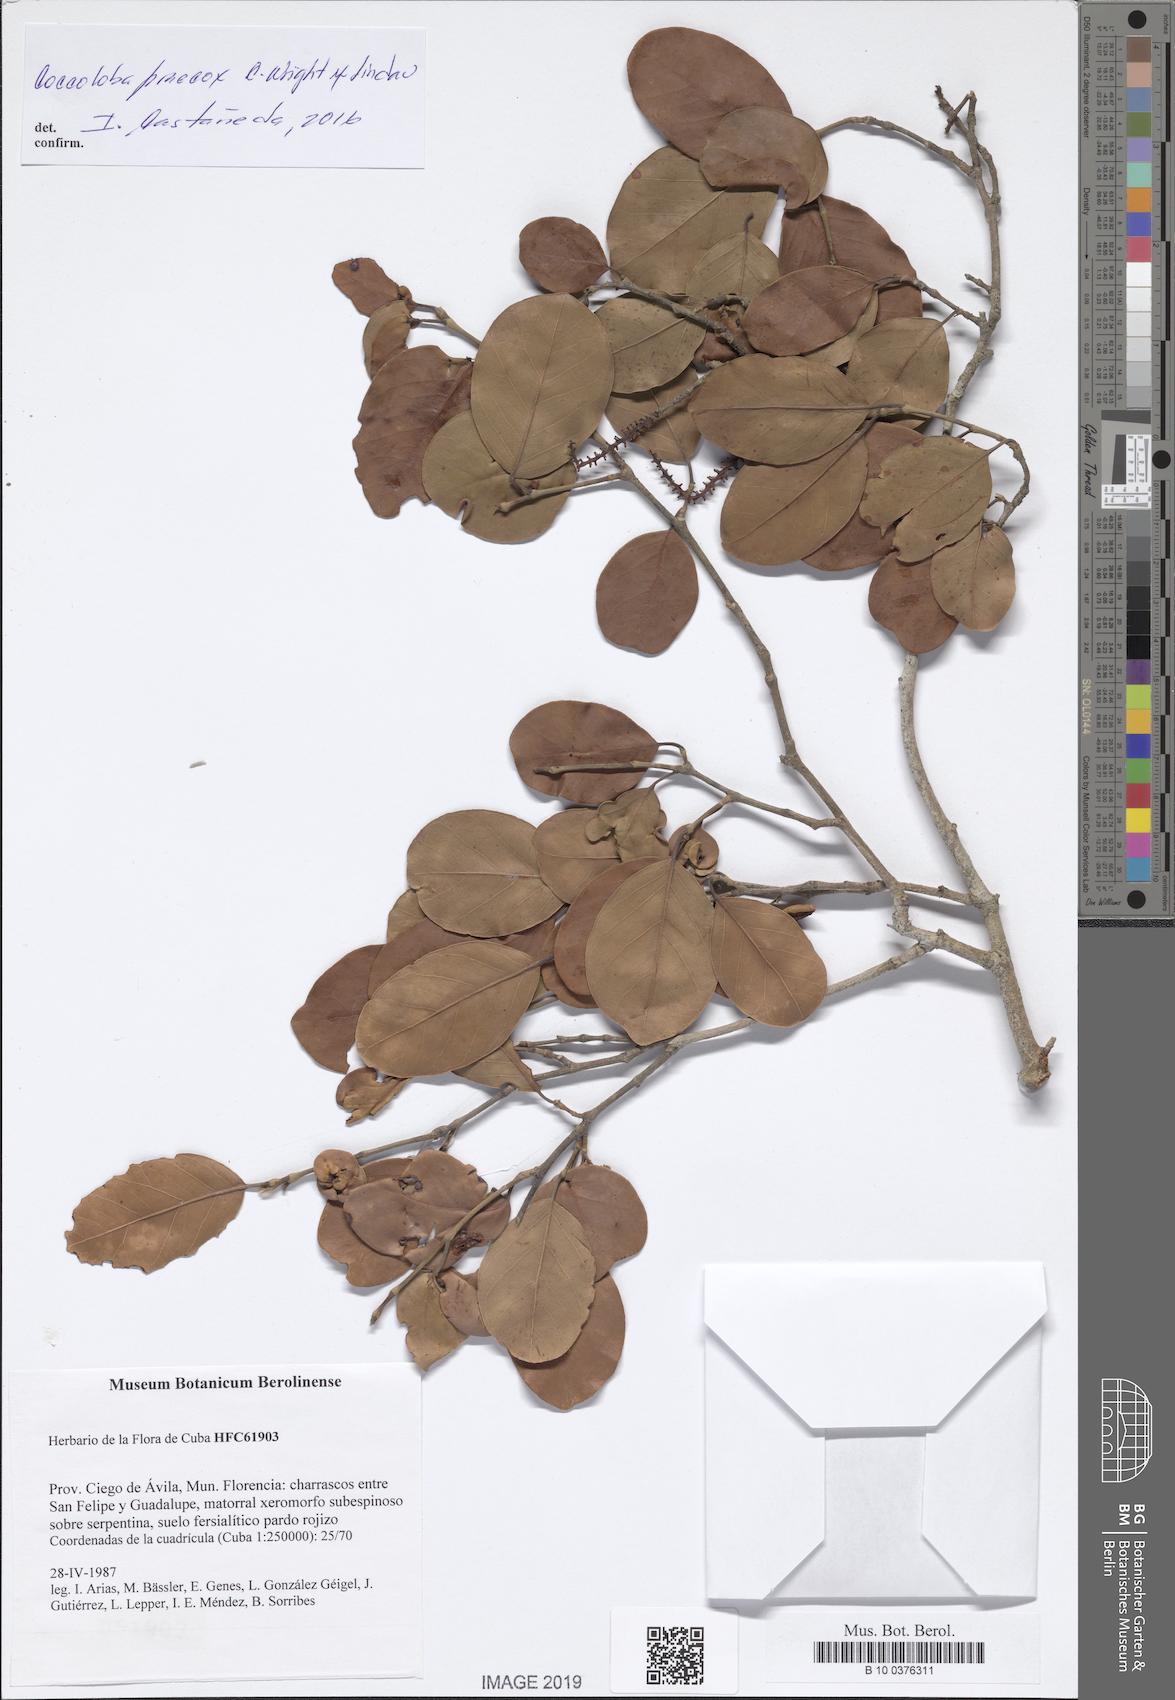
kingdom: Plantae
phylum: Tracheophyta
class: Magnoliopsida
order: Caryophyllales
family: Polygonaceae
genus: Coccoloba
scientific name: Coccoloba praecox
